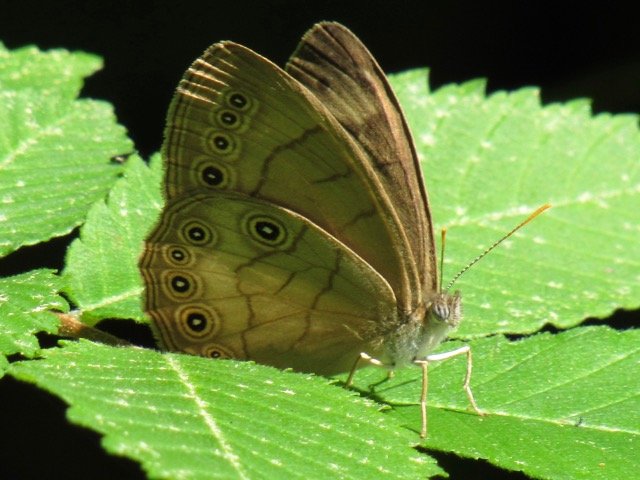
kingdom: Animalia
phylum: Arthropoda
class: Insecta
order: Lepidoptera
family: Nymphalidae
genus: Lethe
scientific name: Lethe eurydice
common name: Appalachian Eyed Brown
